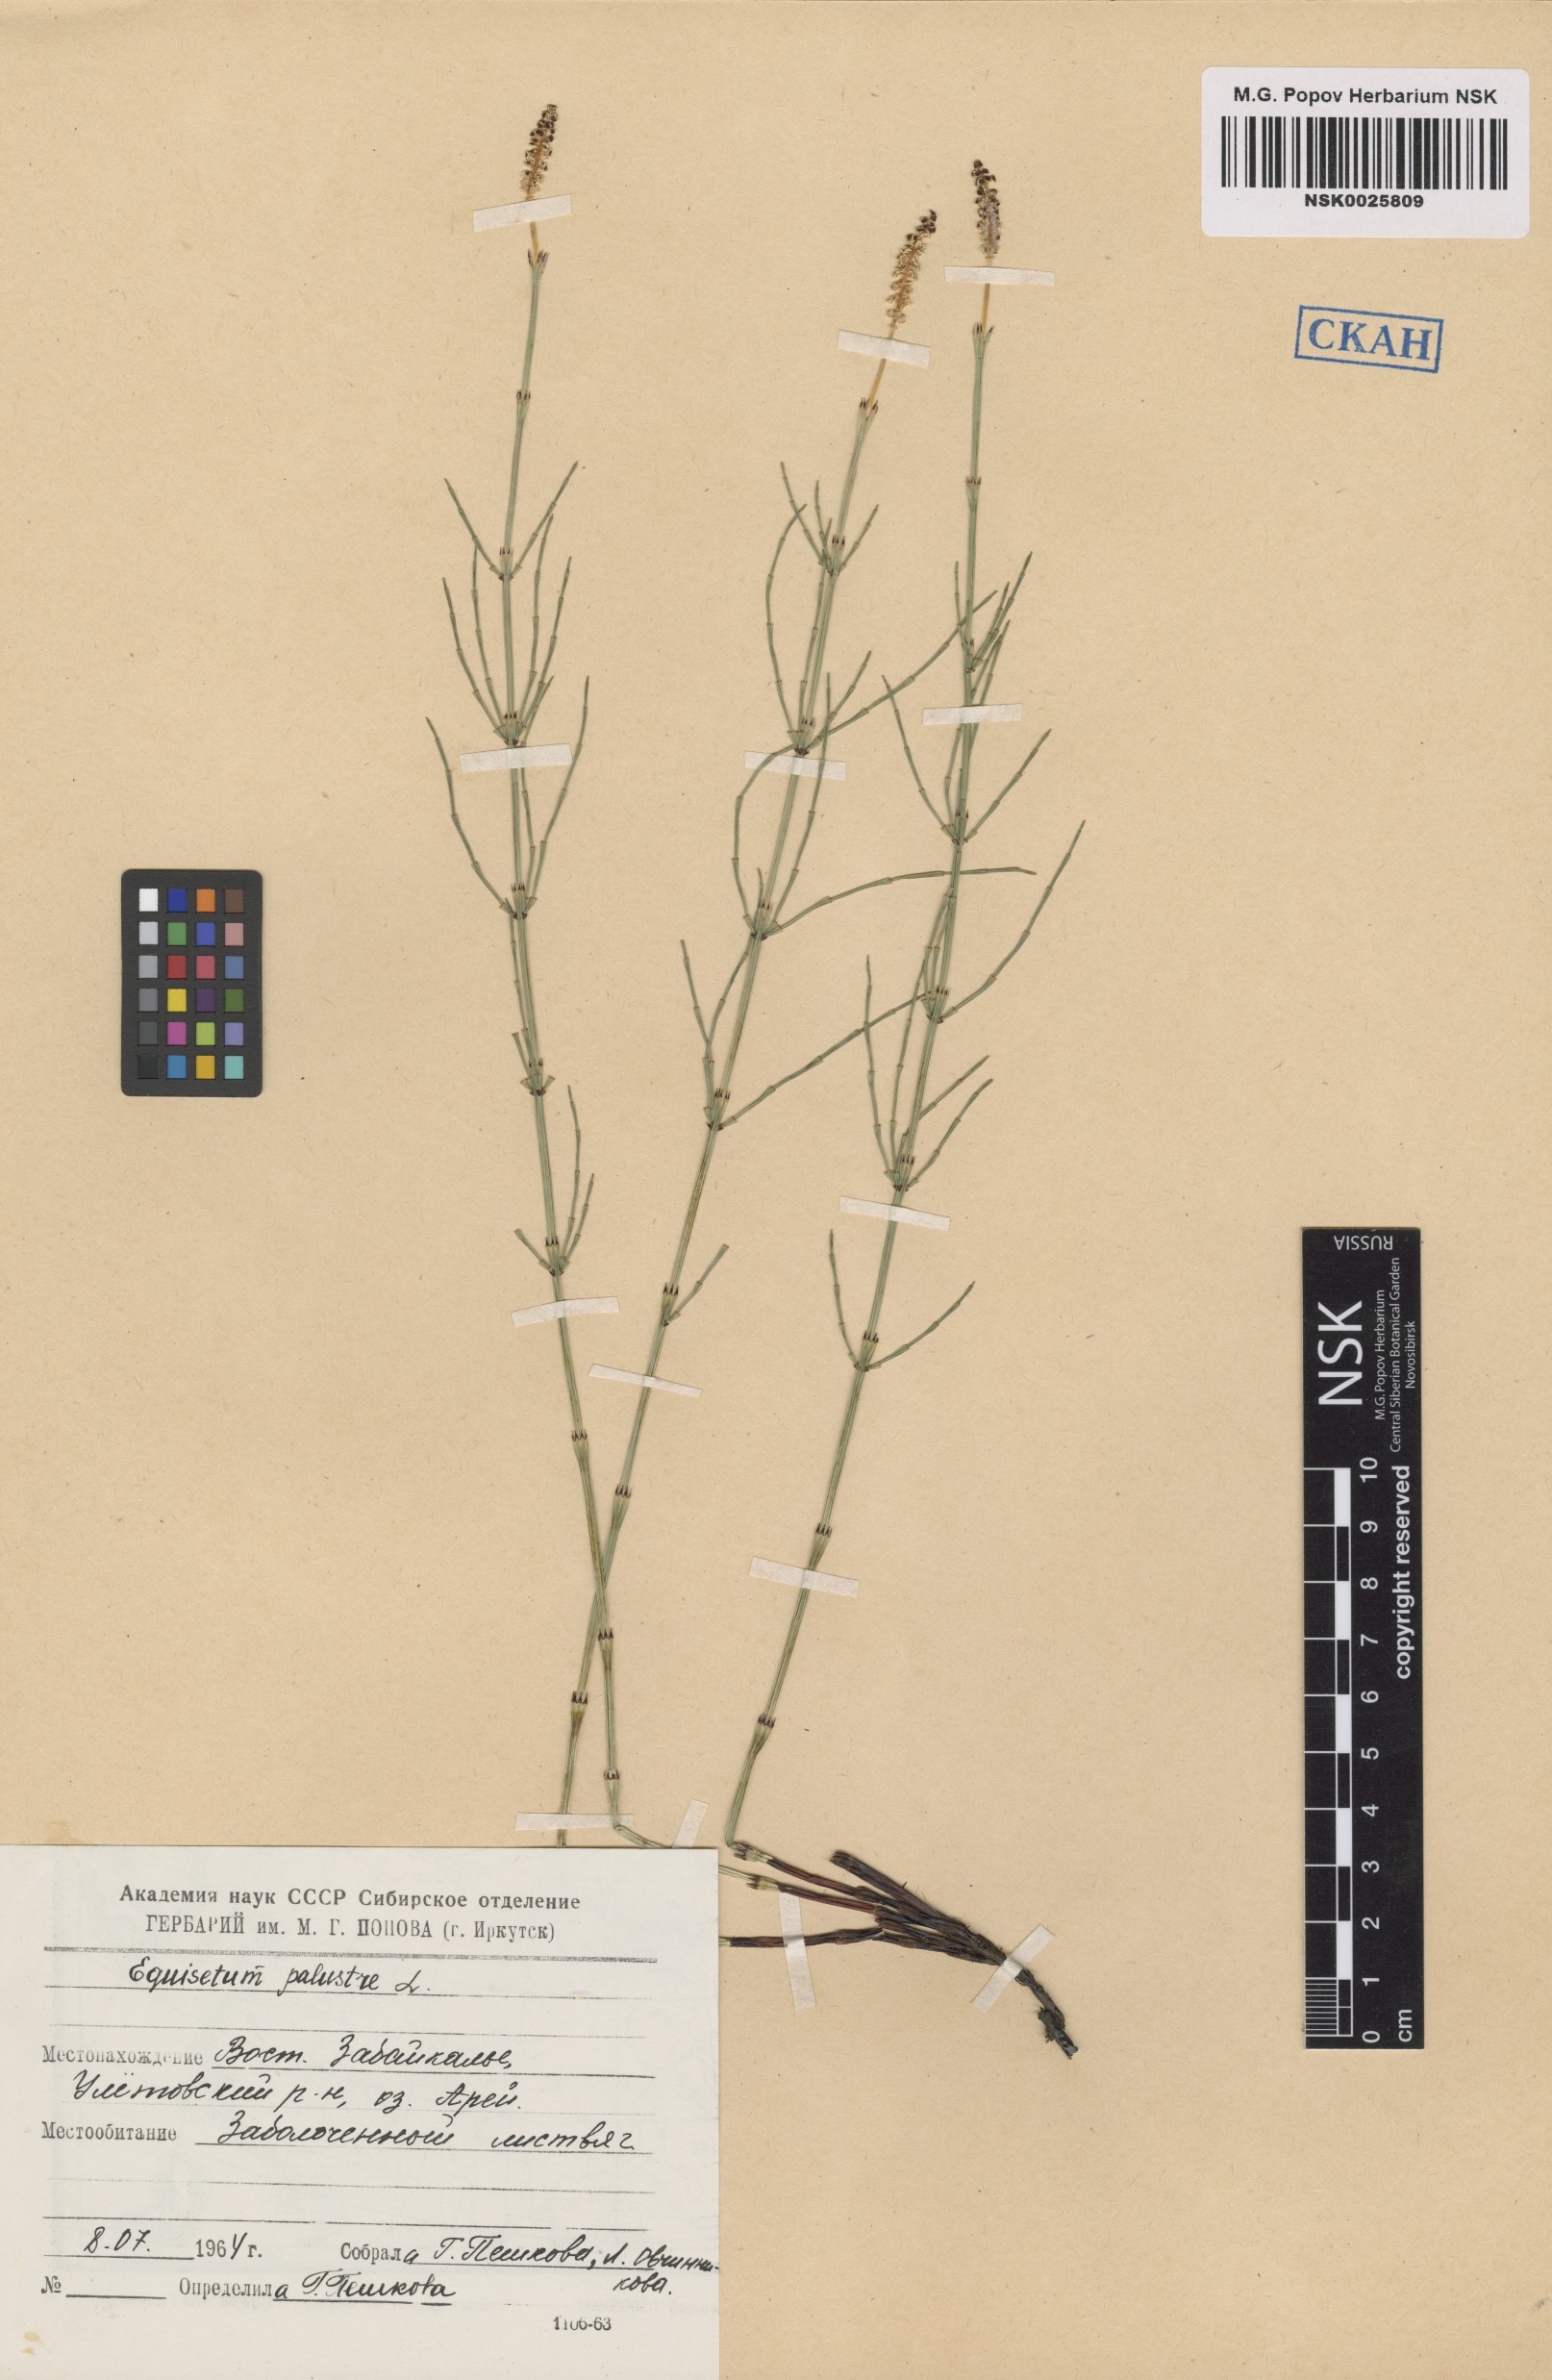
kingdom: Plantae
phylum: Tracheophyta
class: Polypodiopsida
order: Equisetales
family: Equisetaceae
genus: Equisetum
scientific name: Equisetum palustre
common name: Marsh horsetail
